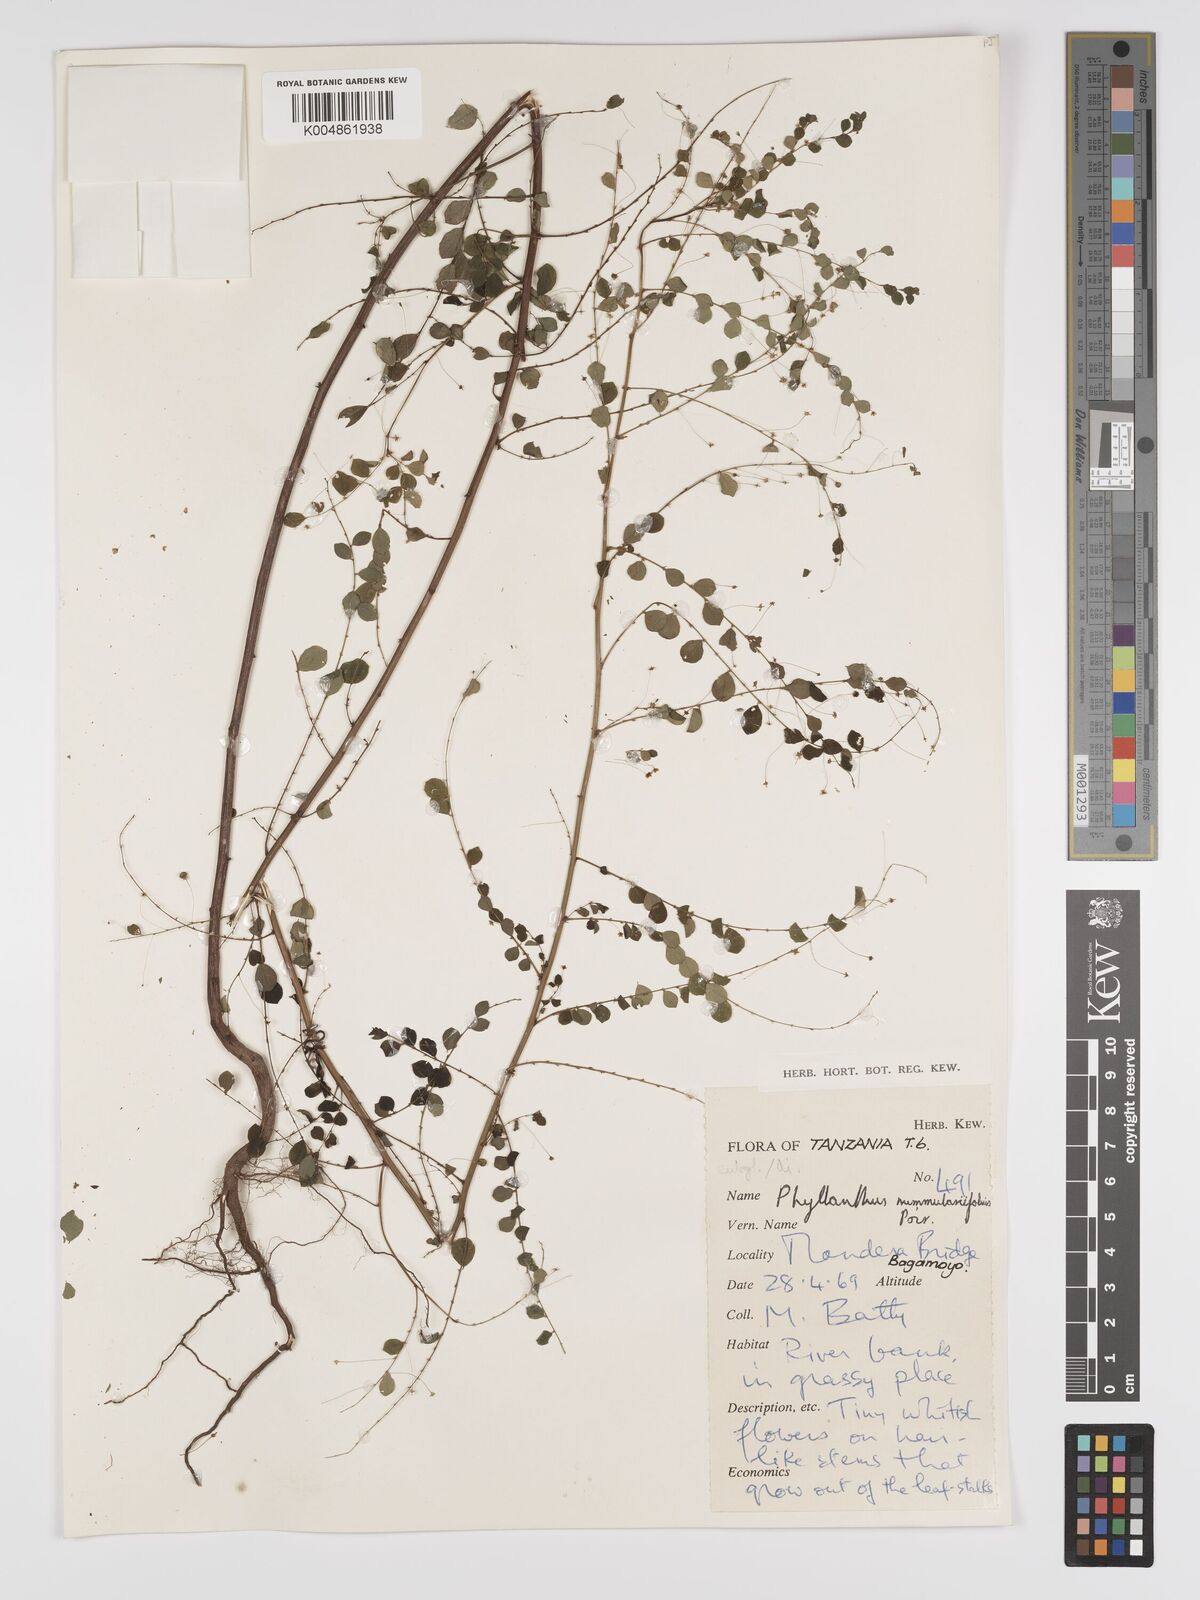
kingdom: Plantae
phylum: Tracheophyta
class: Magnoliopsida
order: Malpighiales
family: Phyllanthaceae
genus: Phyllanthus
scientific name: Phyllanthus nummulariifolius
